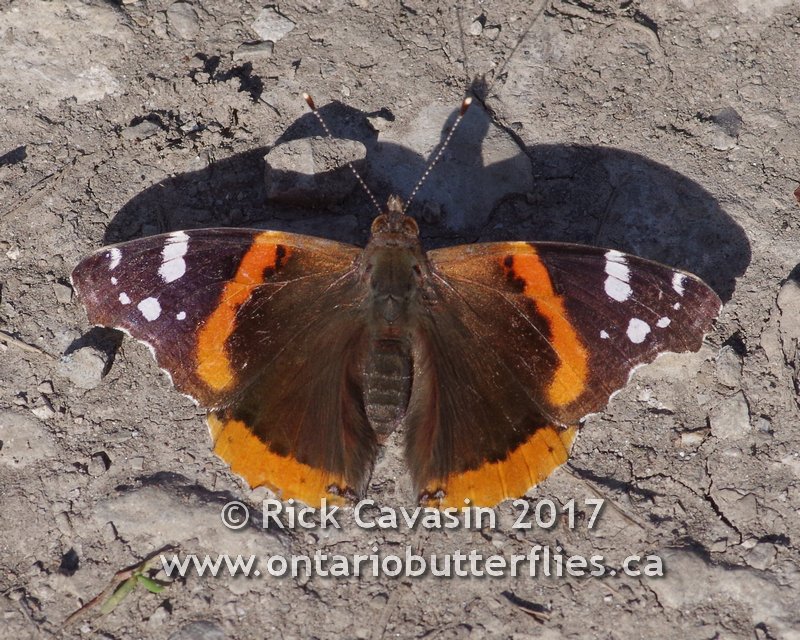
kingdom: Animalia
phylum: Arthropoda
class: Insecta
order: Lepidoptera
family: Nymphalidae
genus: Vanessa
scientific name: Vanessa atalanta
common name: Red Admiral
